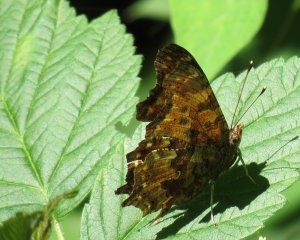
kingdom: Animalia
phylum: Arthropoda
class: Insecta
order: Lepidoptera
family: Nymphalidae
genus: Polygonia
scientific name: Polygonia comma
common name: Eastern Comma
